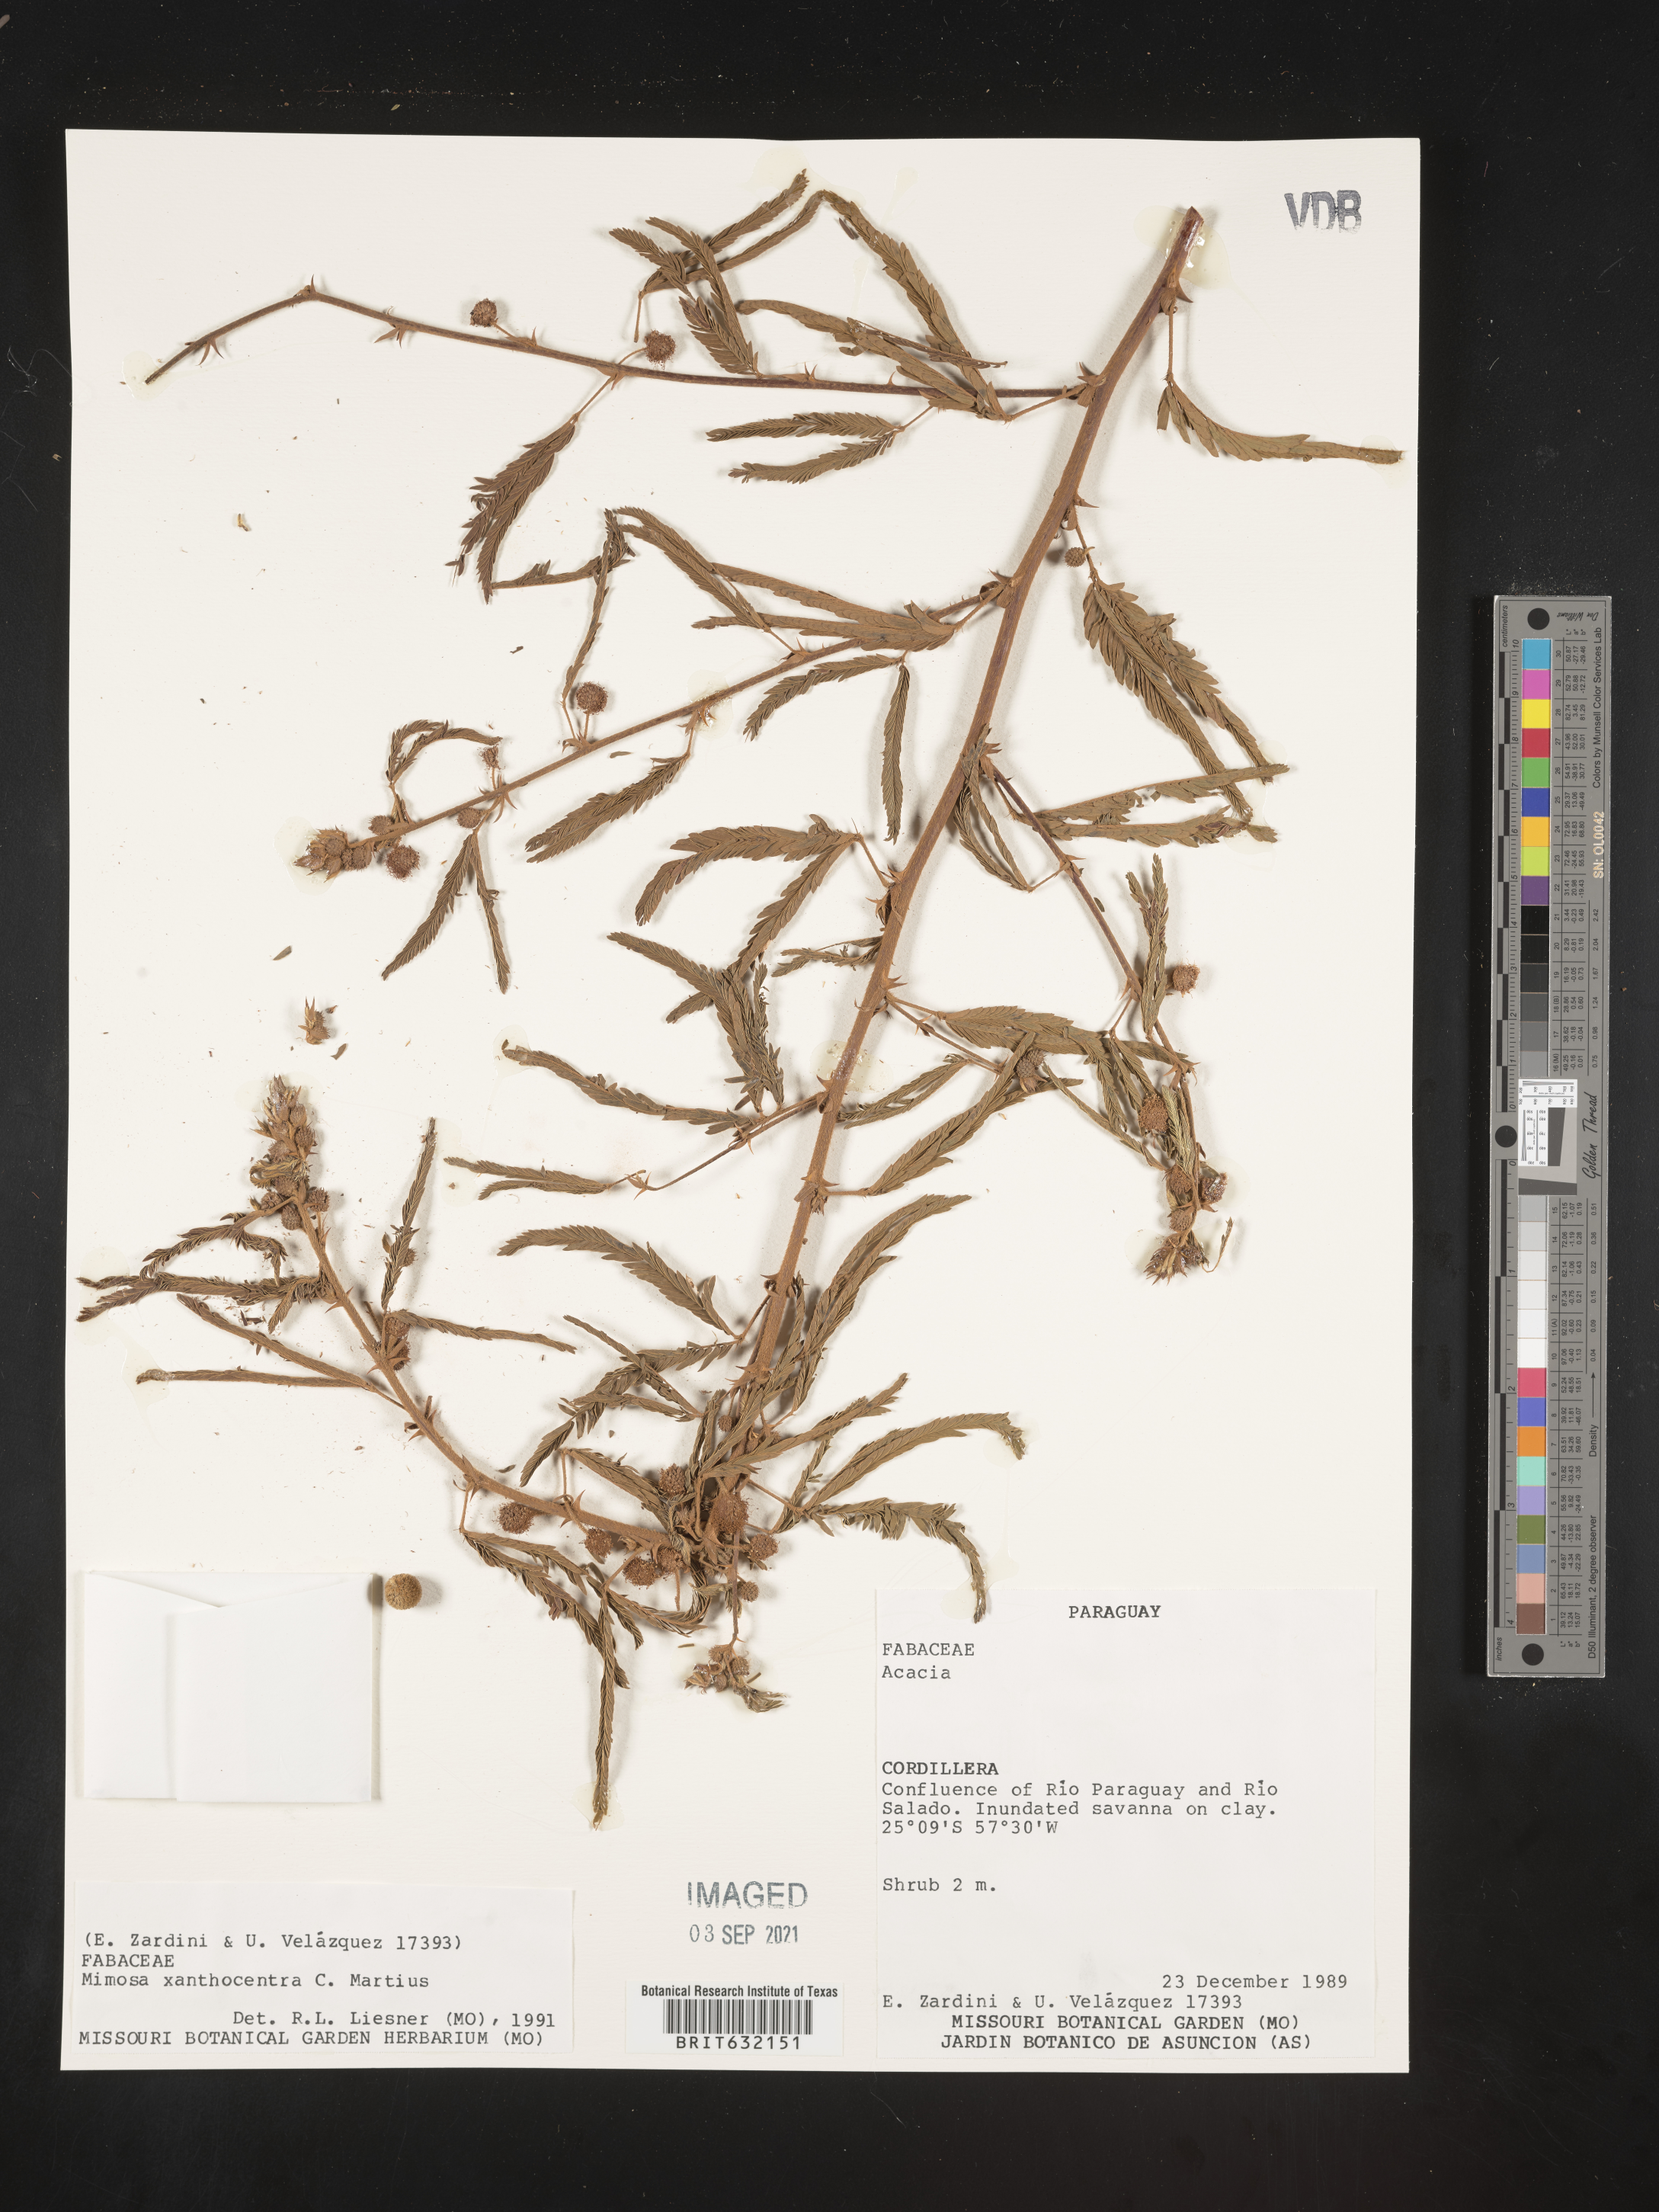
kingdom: Plantae
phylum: Tracheophyta
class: Magnoliopsida
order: Fabales
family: Fabaceae
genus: Mimosa
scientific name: Mimosa
